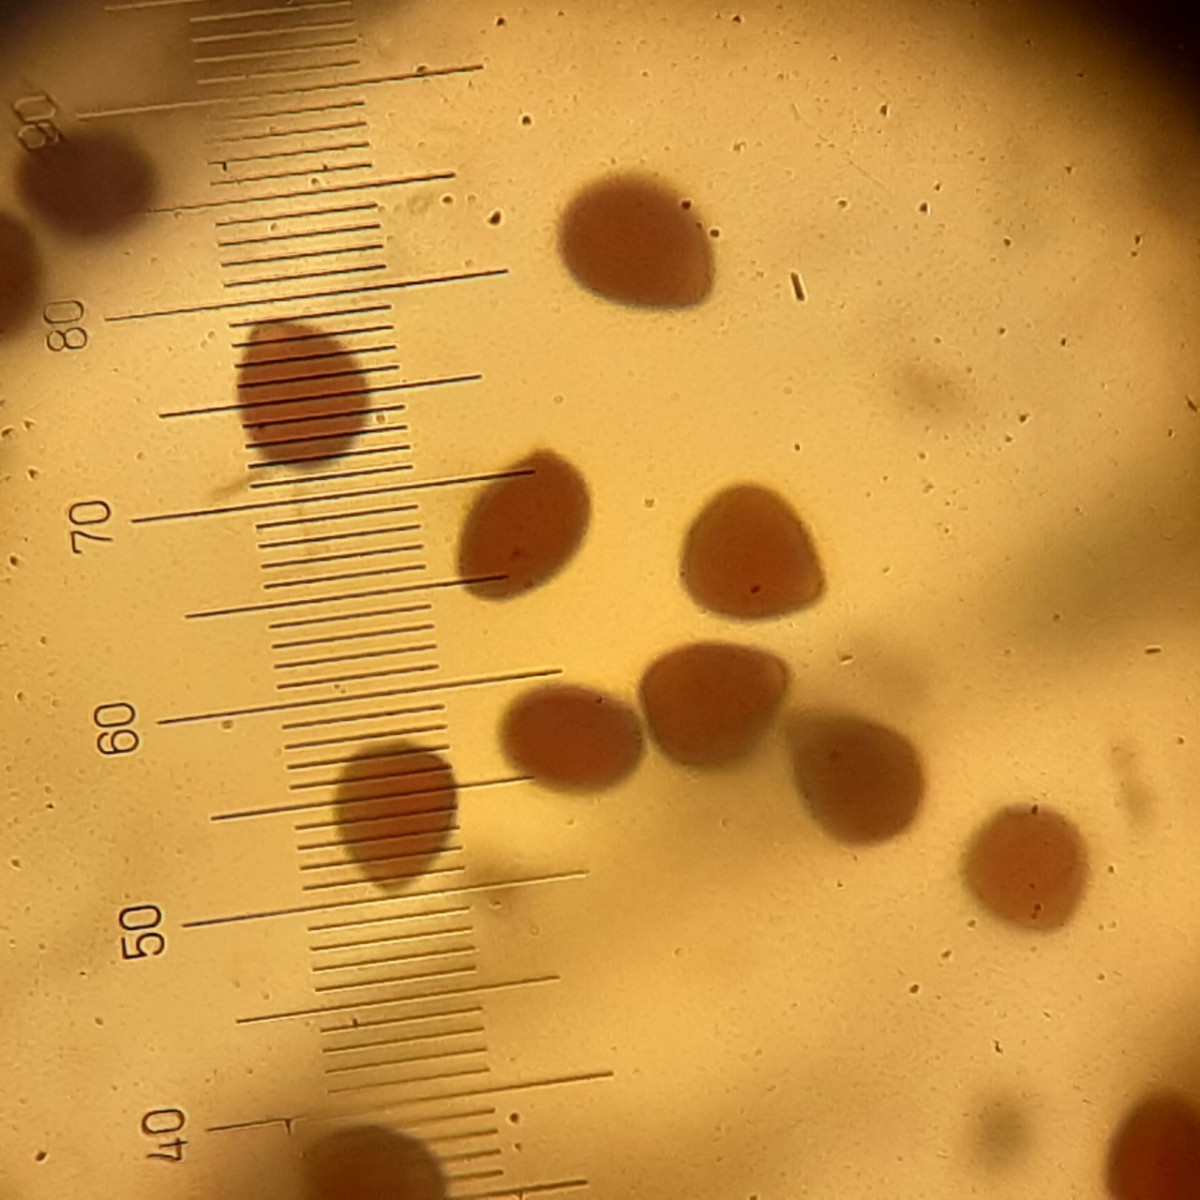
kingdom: Fungi
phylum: Basidiomycota
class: Agaricomycetes
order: Agaricales
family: Psathyrellaceae
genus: Parasola
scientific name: Parasola crataegi
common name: tjørne-hjulhat
